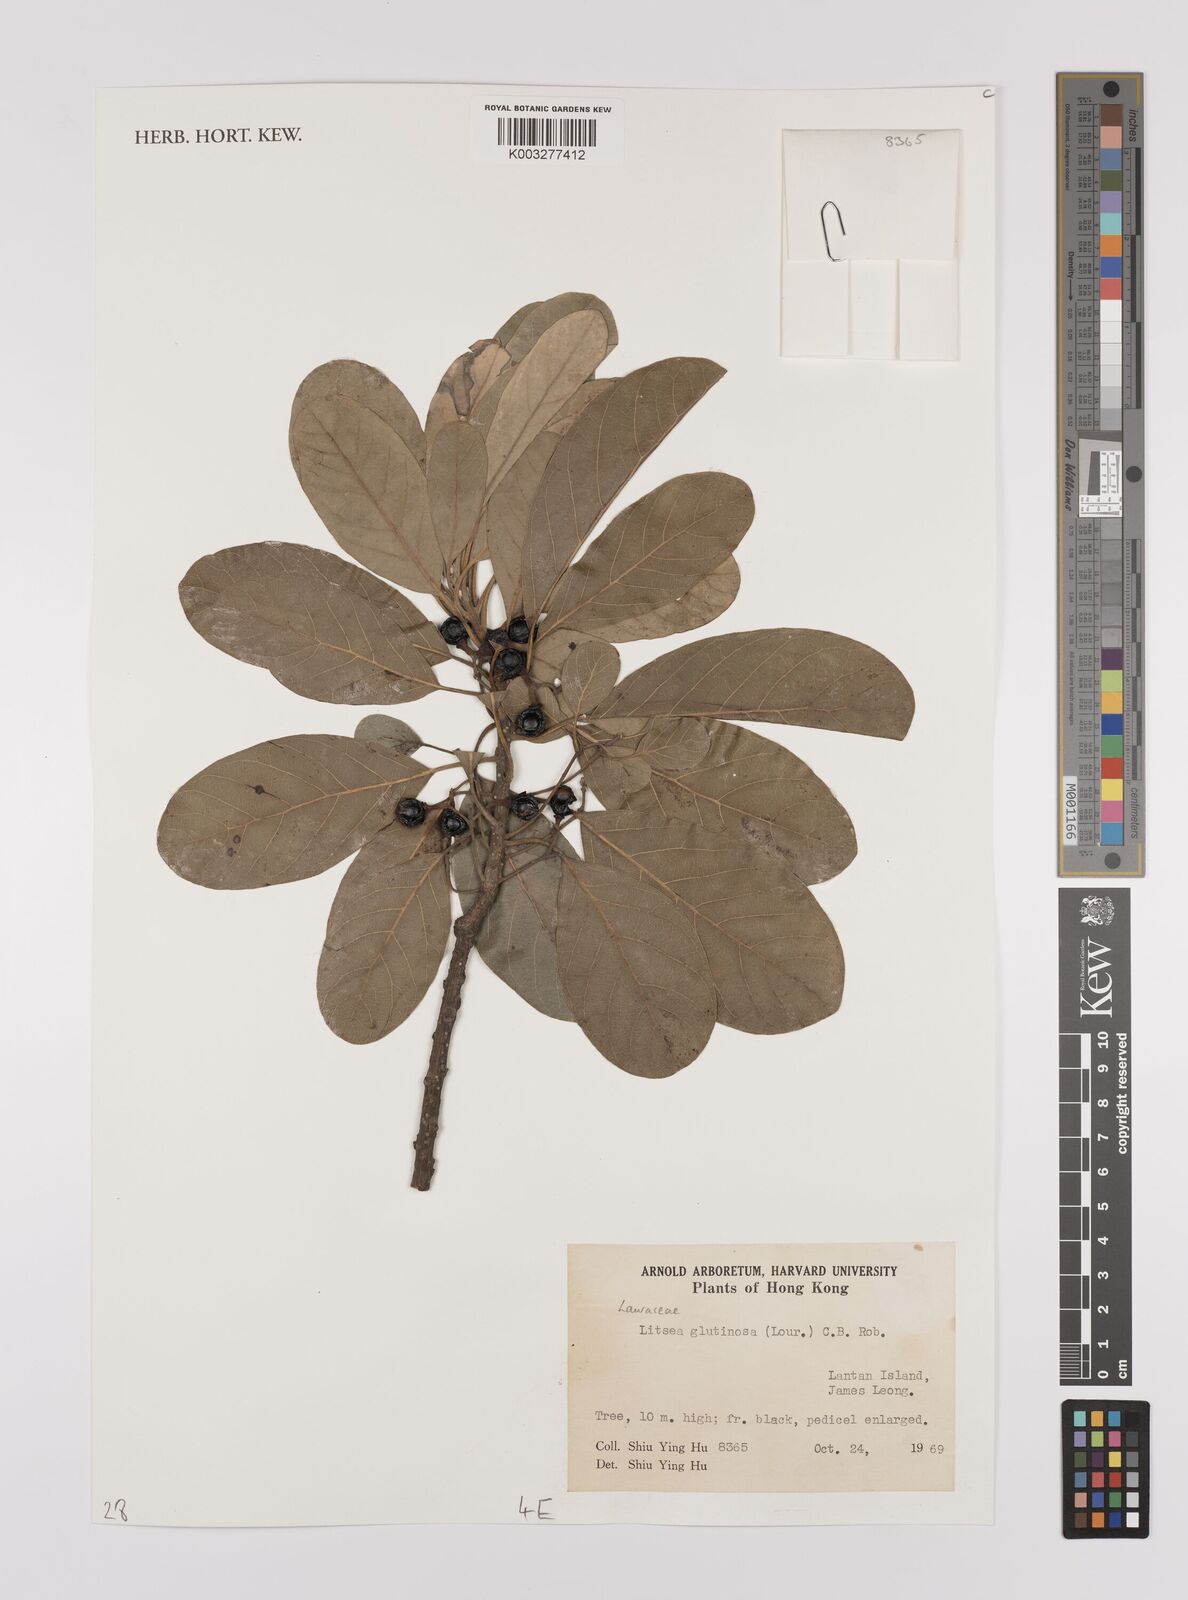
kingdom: Plantae
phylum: Tracheophyta
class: Magnoliopsida
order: Laurales
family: Lauraceae
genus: Litsea
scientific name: Litsea glutinosa
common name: Indian-laurel
